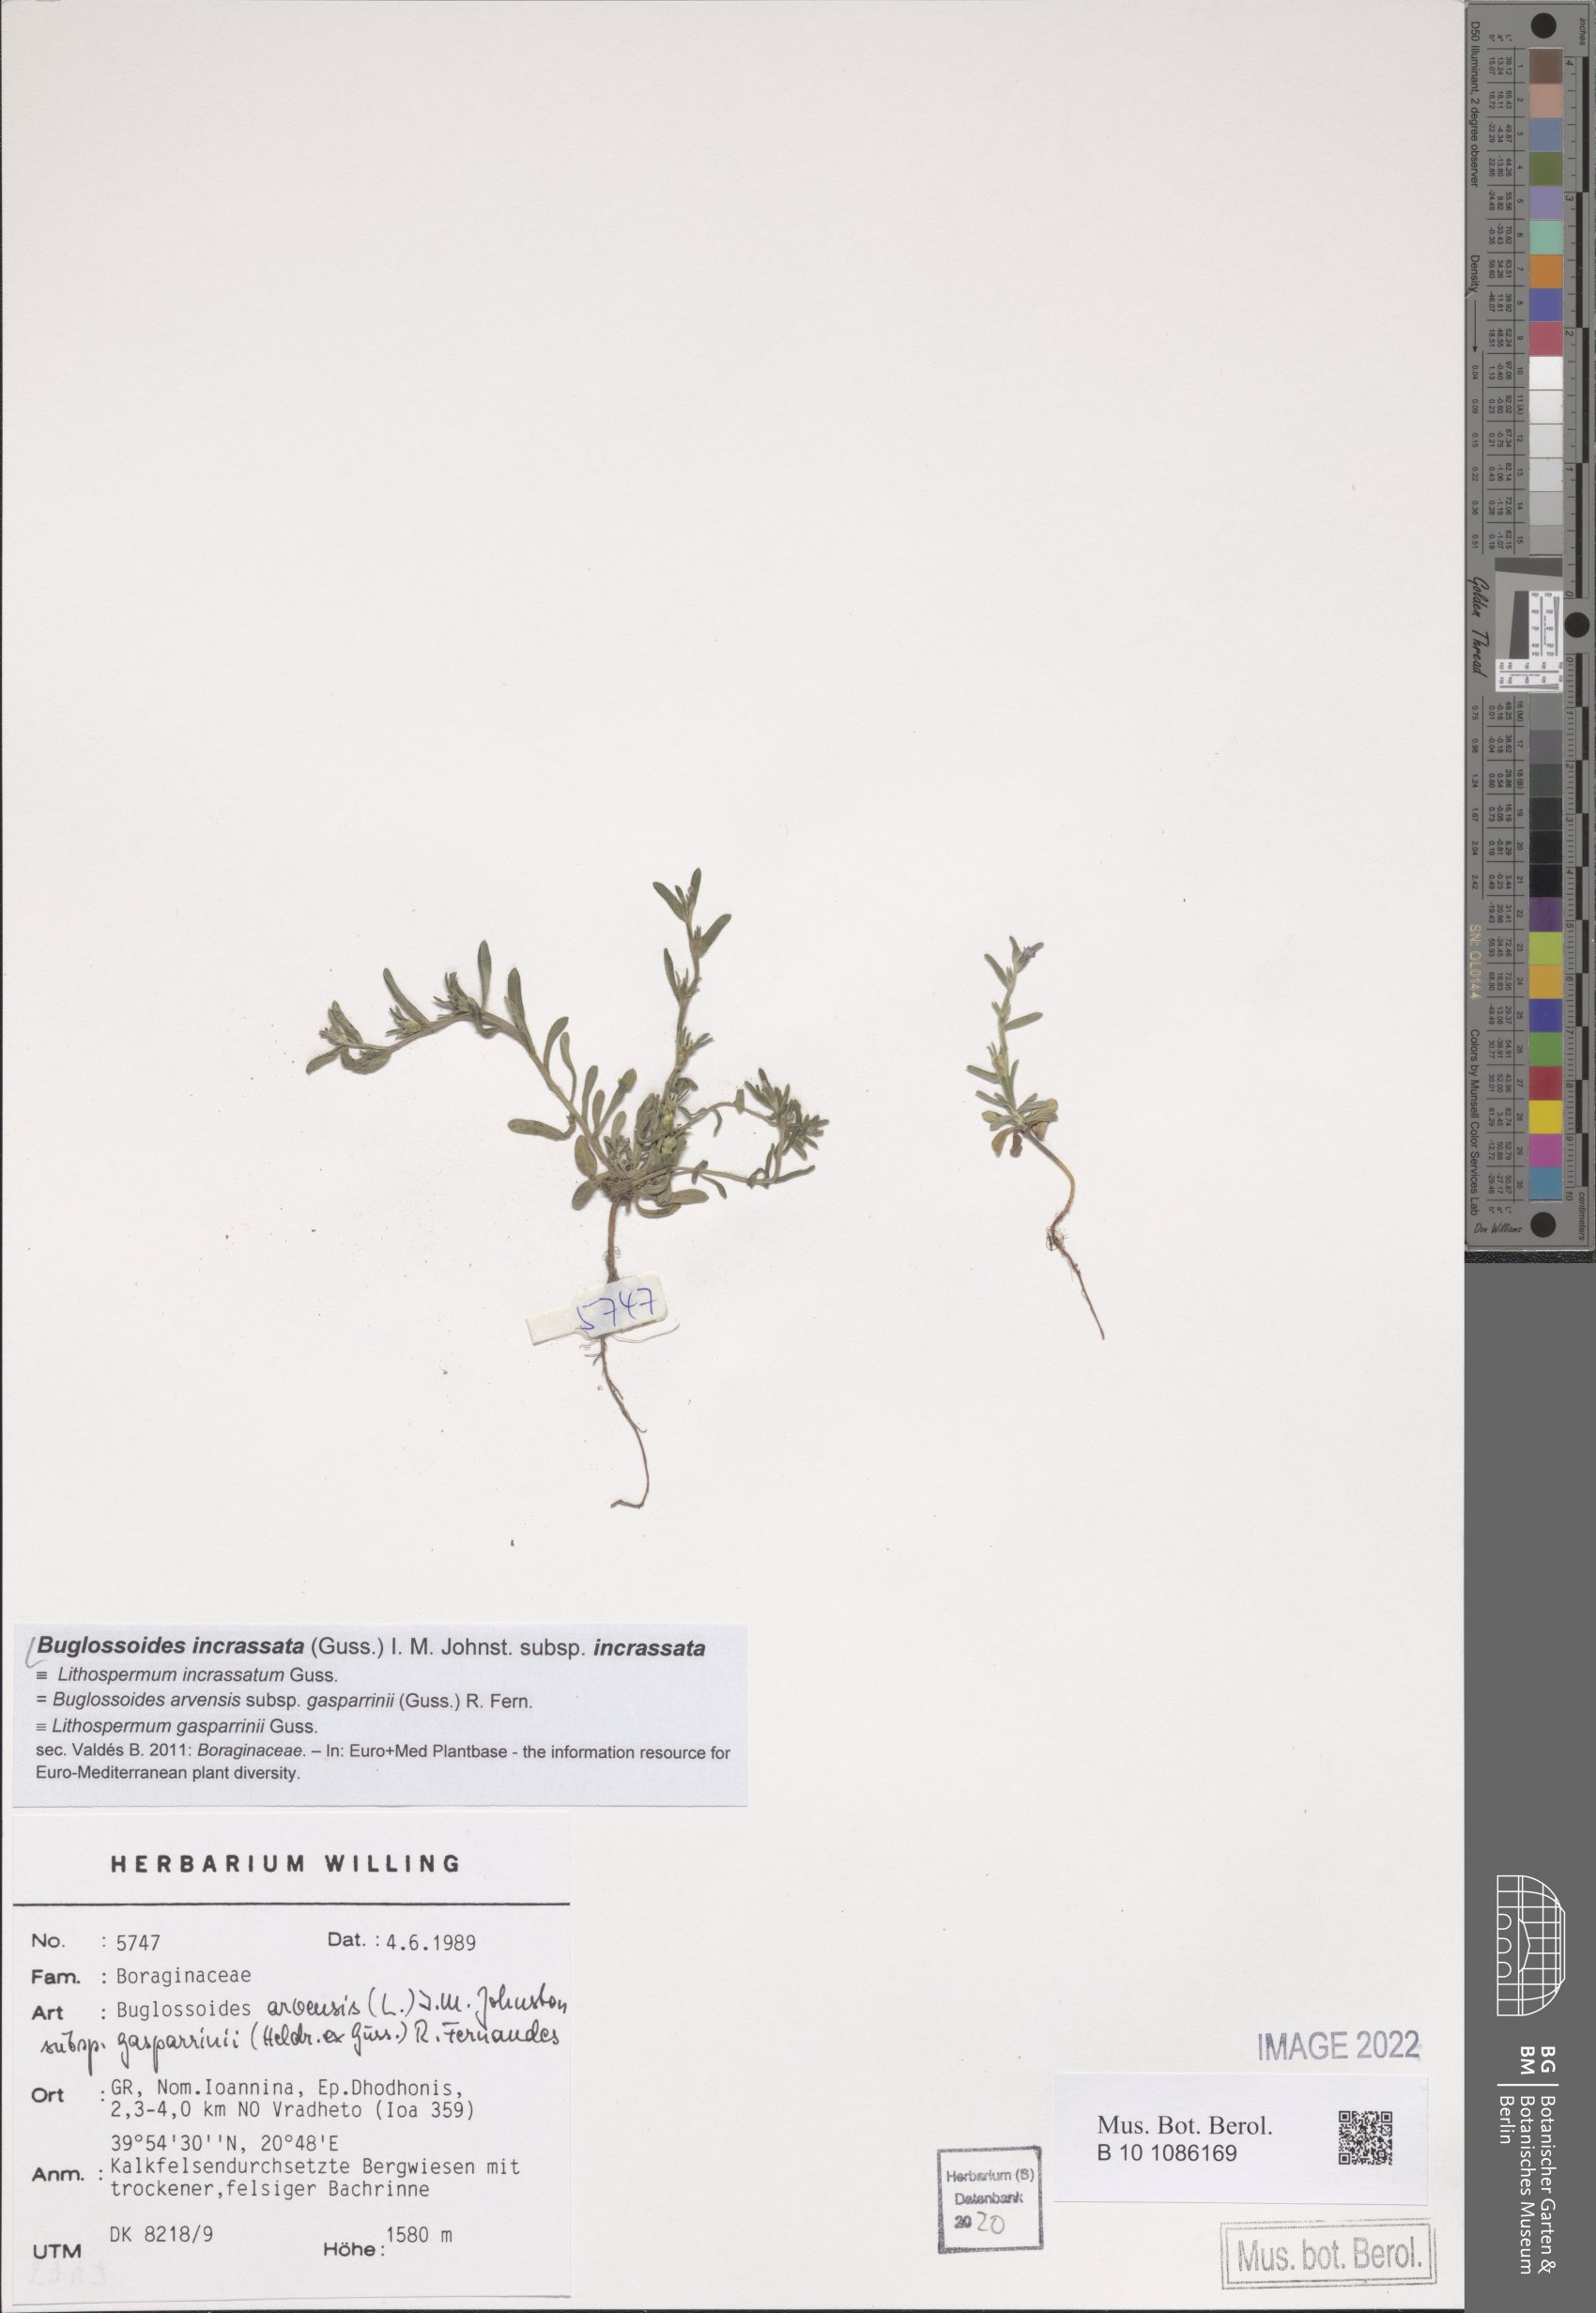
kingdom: Plantae
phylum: Tracheophyta
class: Magnoliopsida
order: Boraginales
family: Boraginaceae
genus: Buglossoides
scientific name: Buglossoides incrassata
